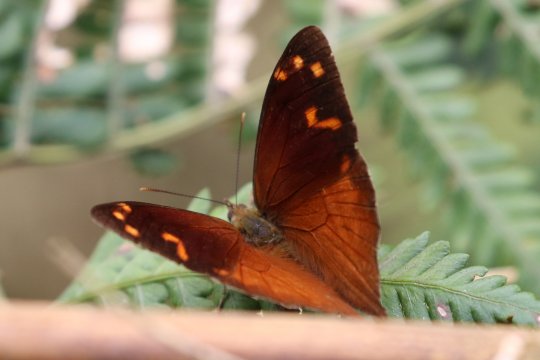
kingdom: Animalia
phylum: Arthropoda
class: Insecta
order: Lepidoptera
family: Nymphalidae
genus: Corades
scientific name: Corades enyo
